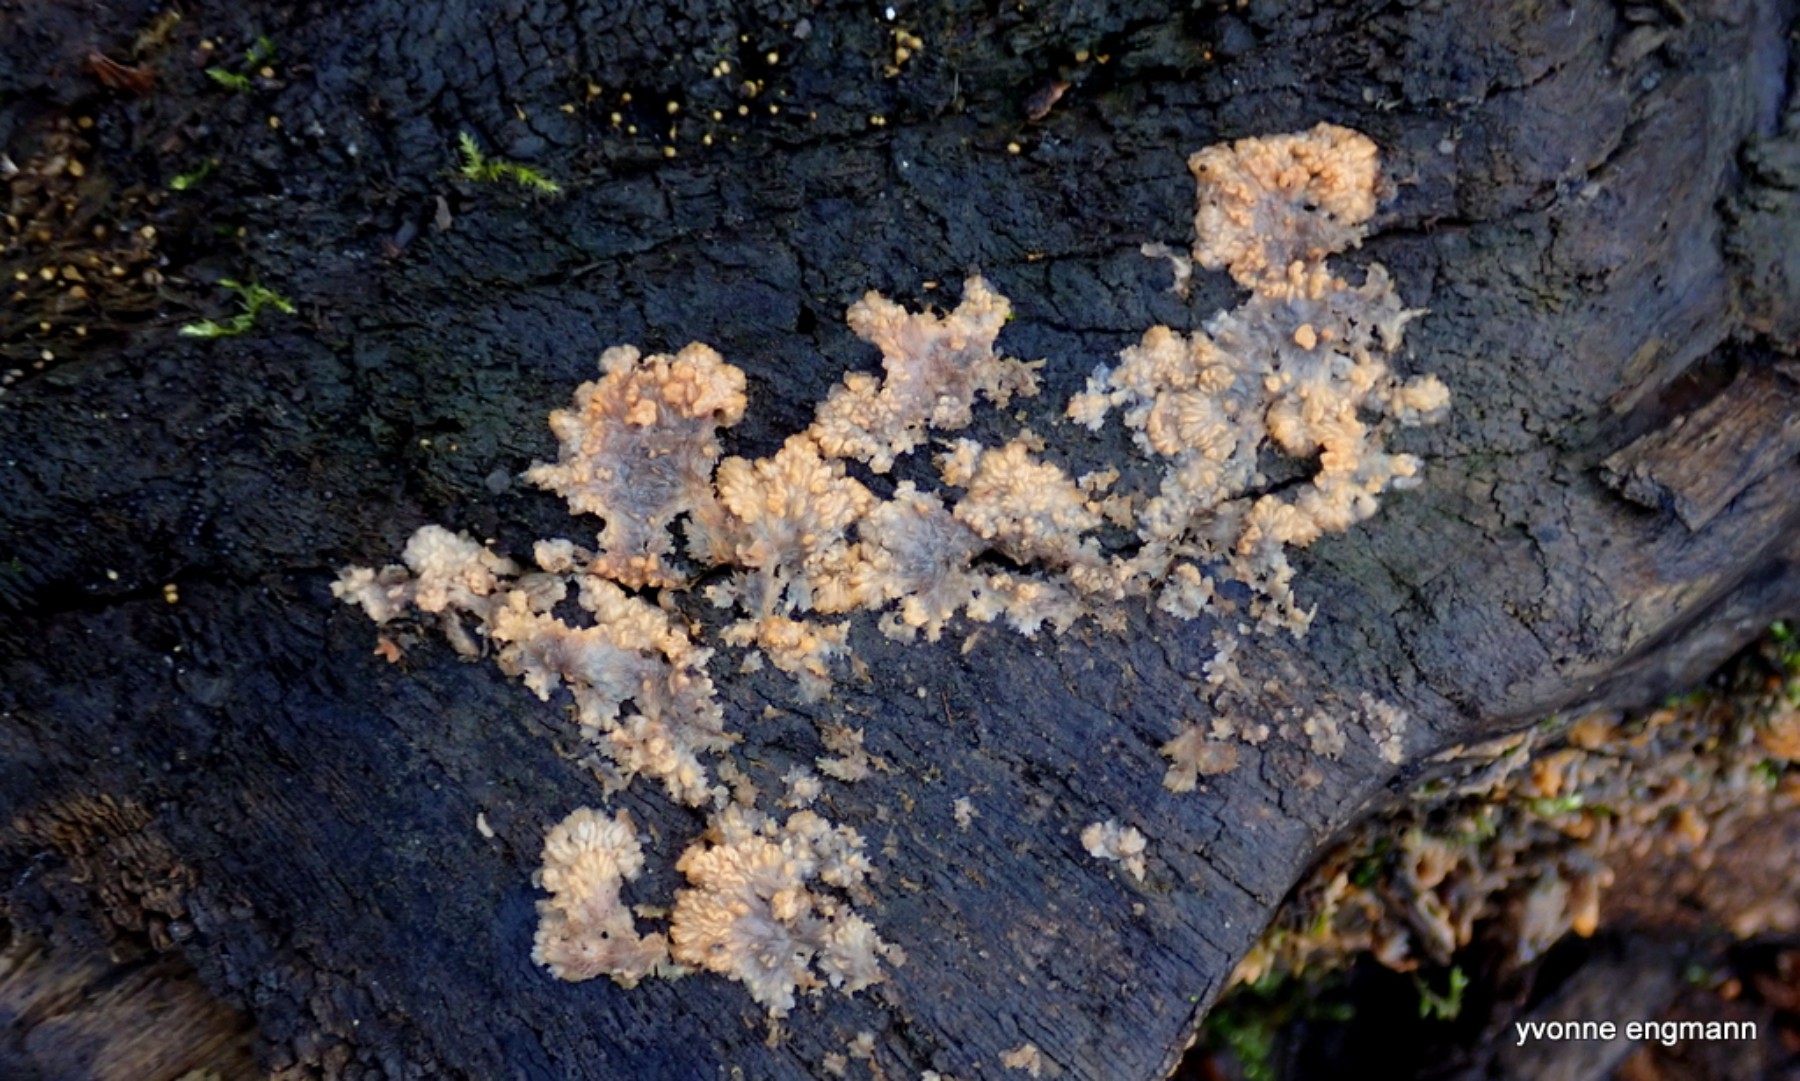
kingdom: Fungi
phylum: Basidiomycota
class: Agaricomycetes
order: Polyporales
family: Meruliaceae
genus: Phlebia
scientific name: Phlebia radiata
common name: stråle-åresvamp
